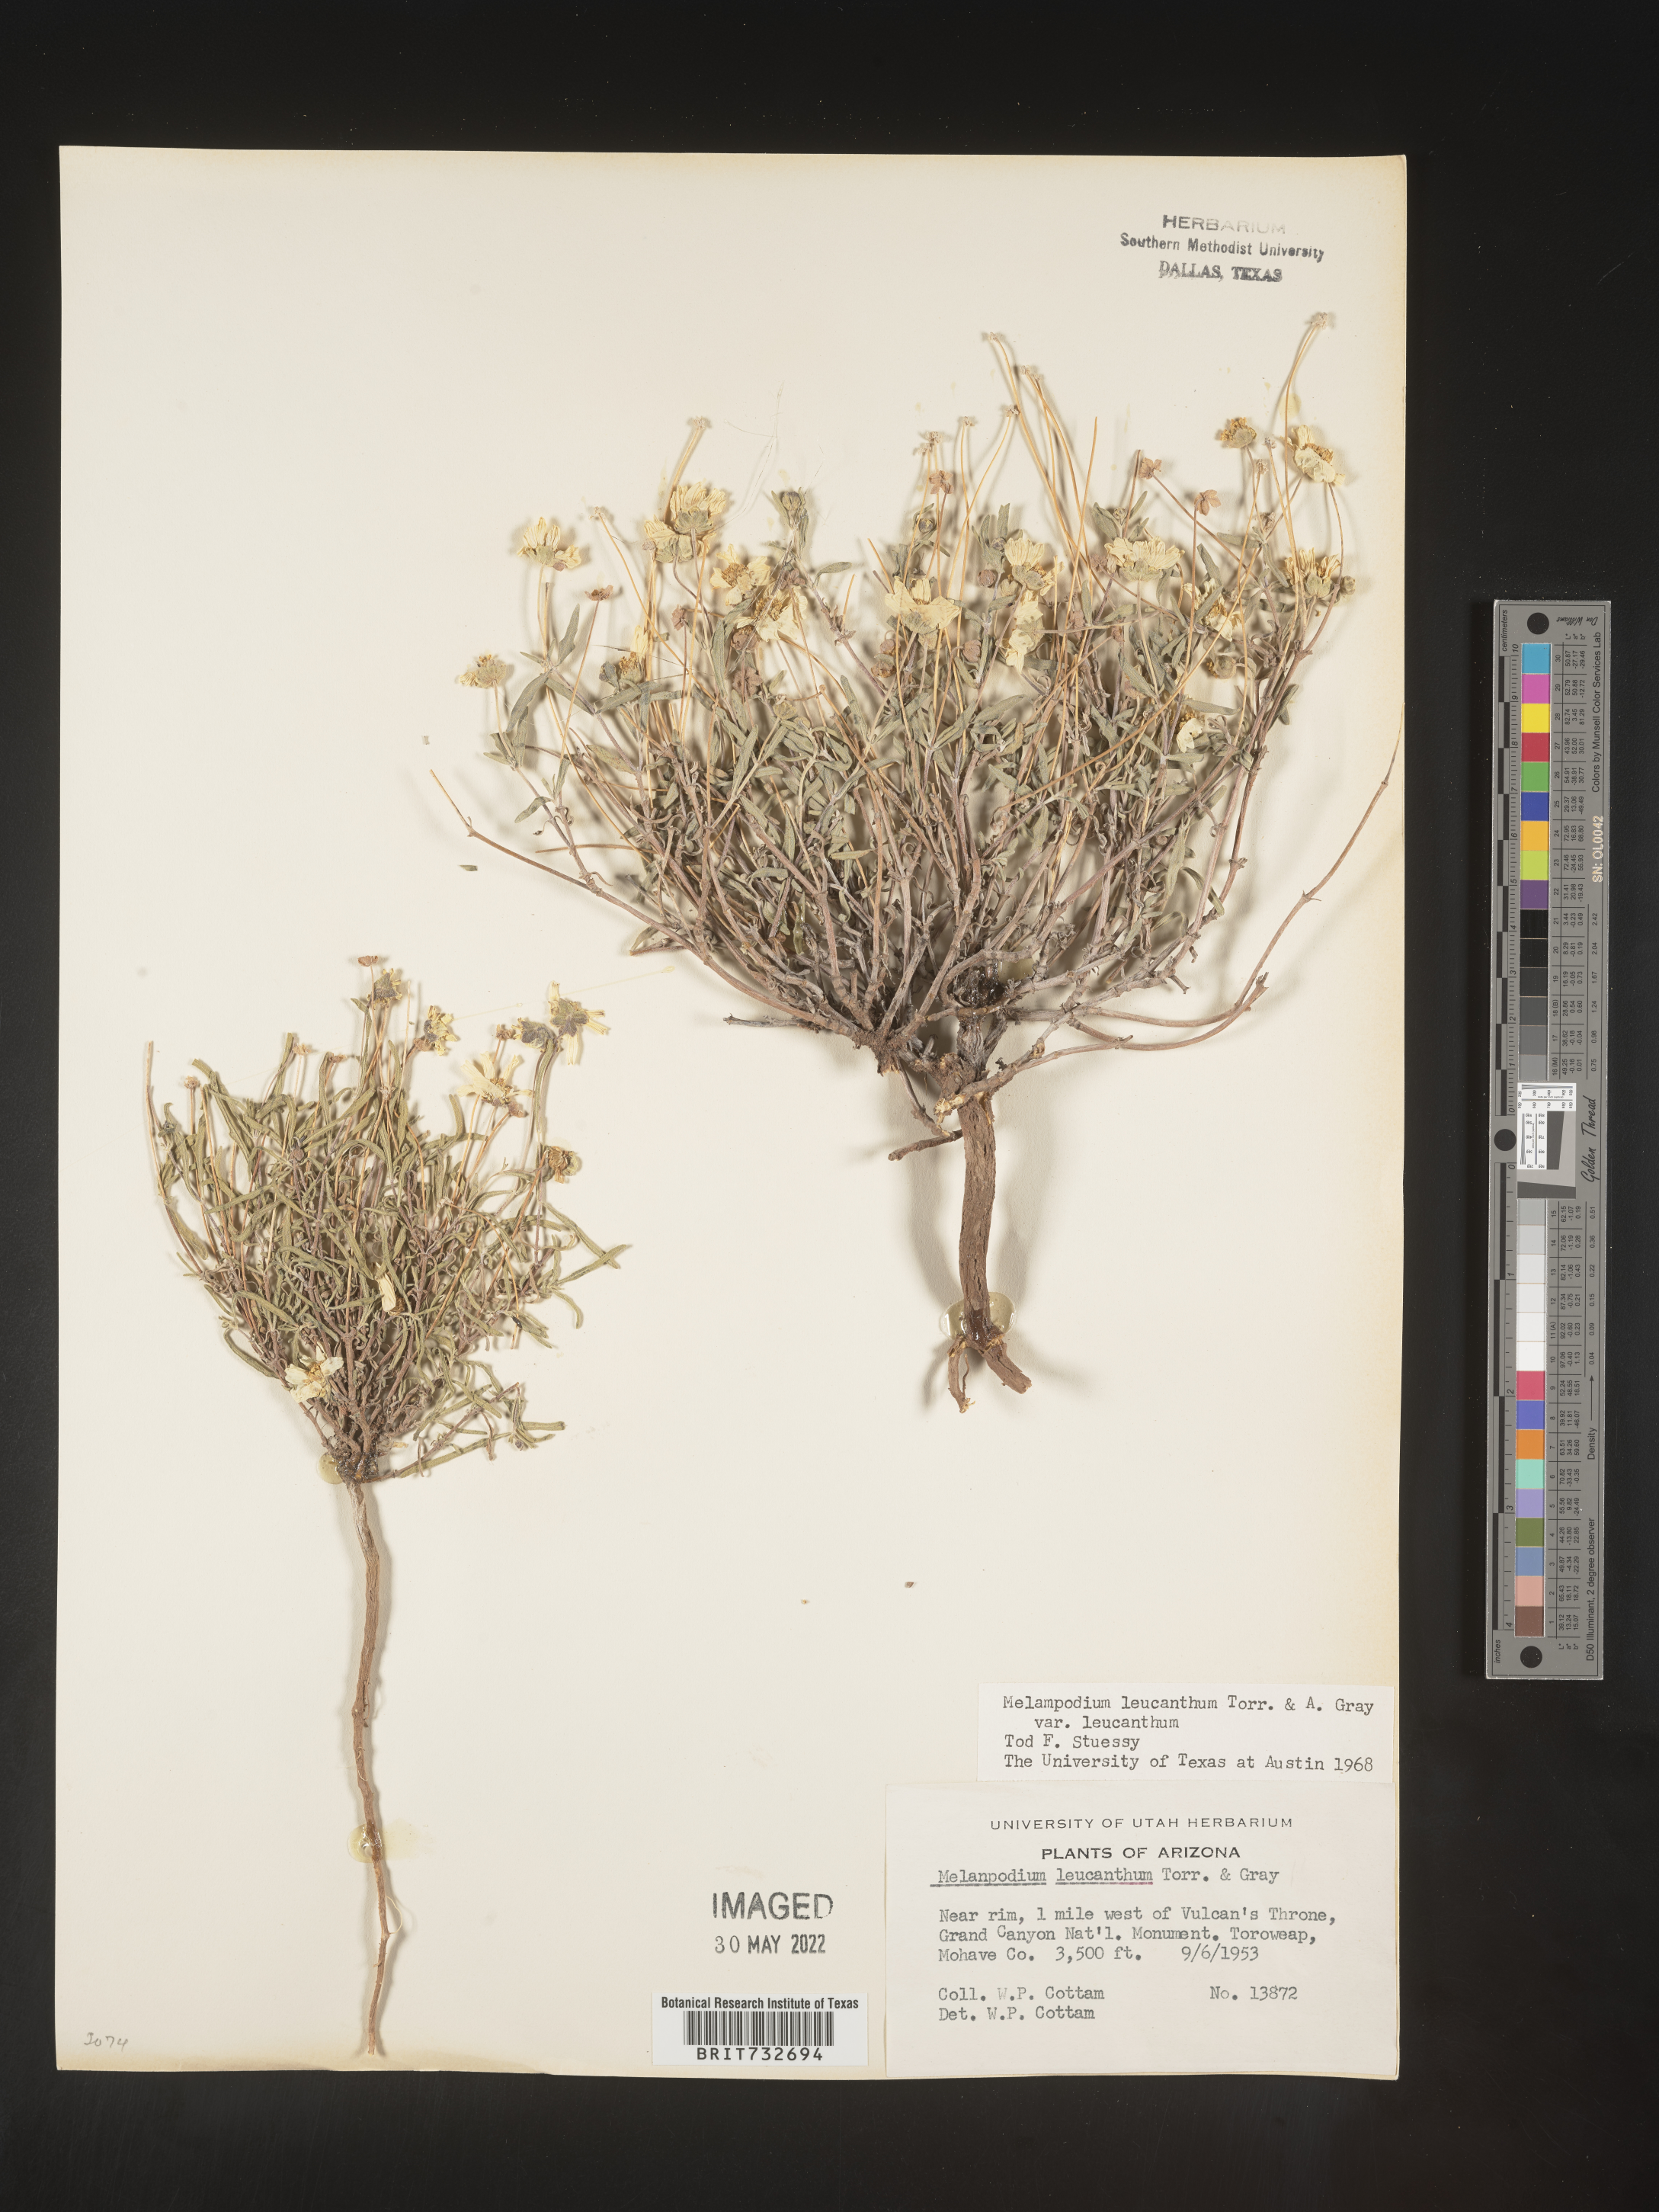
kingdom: Plantae
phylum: Tracheophyta
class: Magnoliopsida
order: Asterales
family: Asteraceae
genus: Melampodium
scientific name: Melampodium leucanthum
